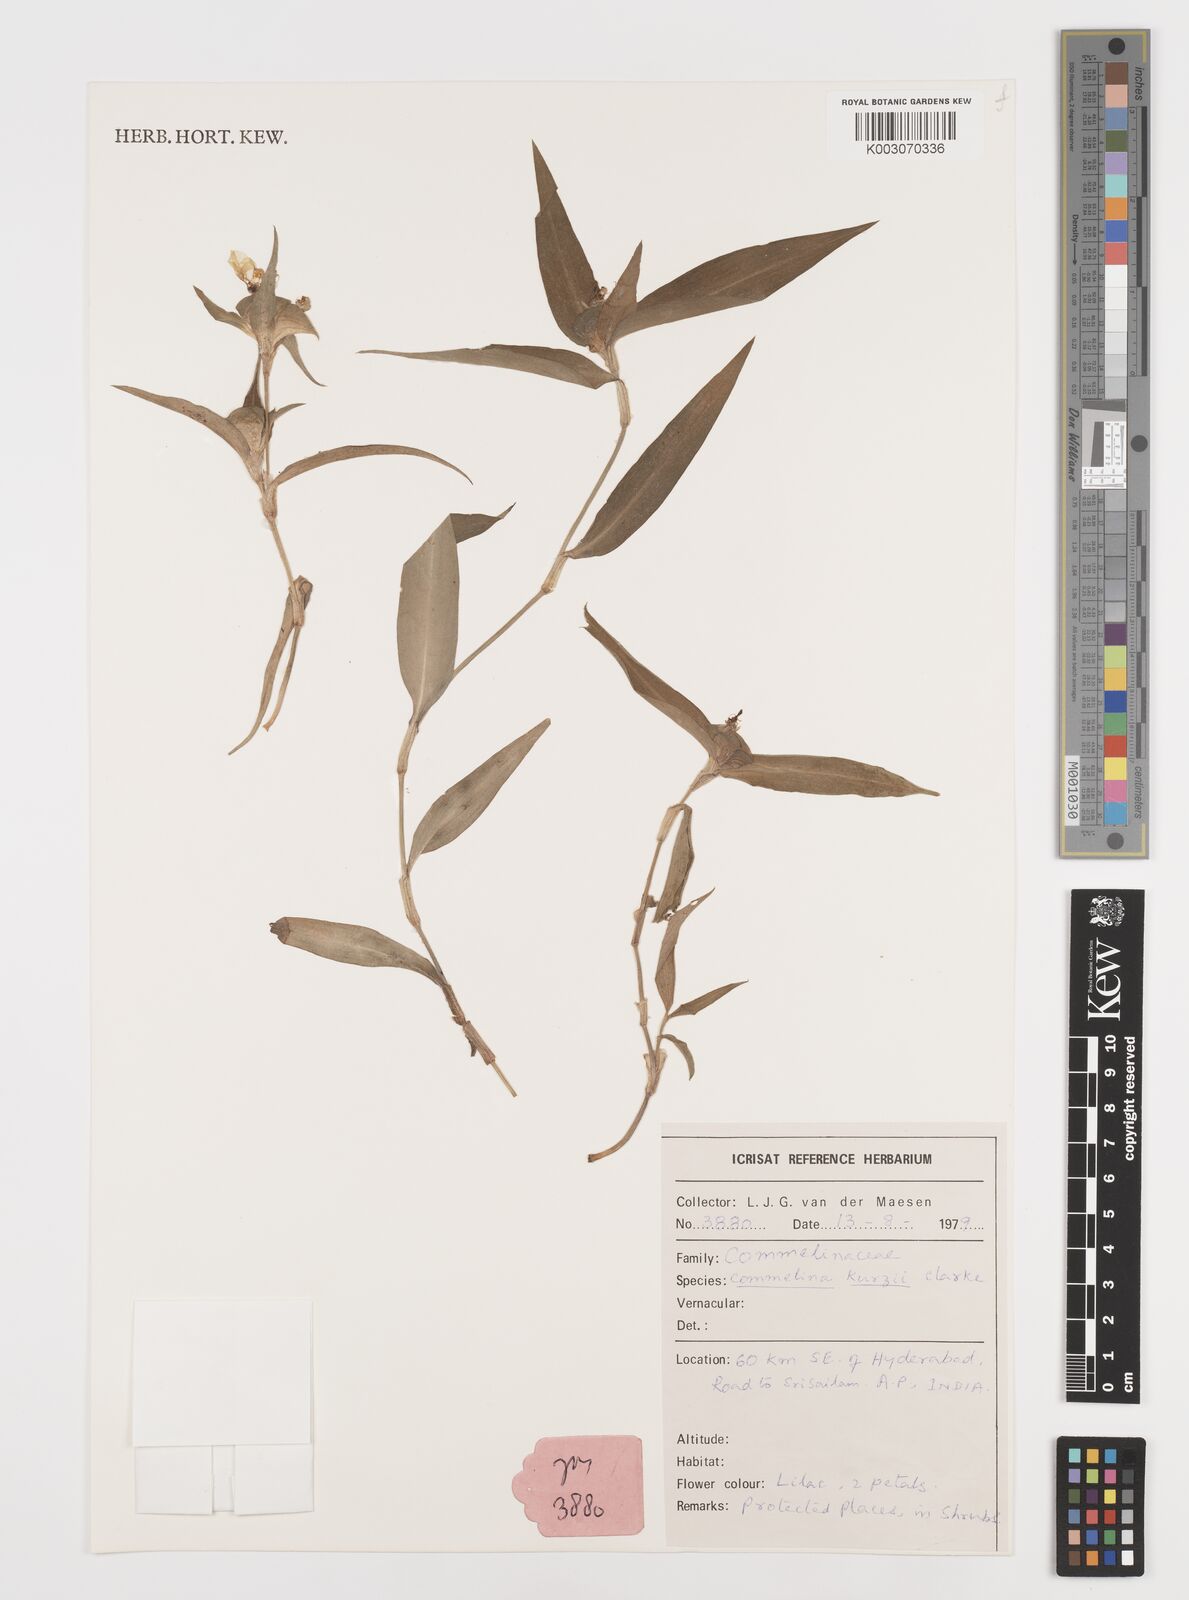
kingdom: Plantae
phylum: Tracheophyta
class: Liliopsida
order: Commelinales
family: Commelinaceae
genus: Commelina
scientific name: Commelina undulata
